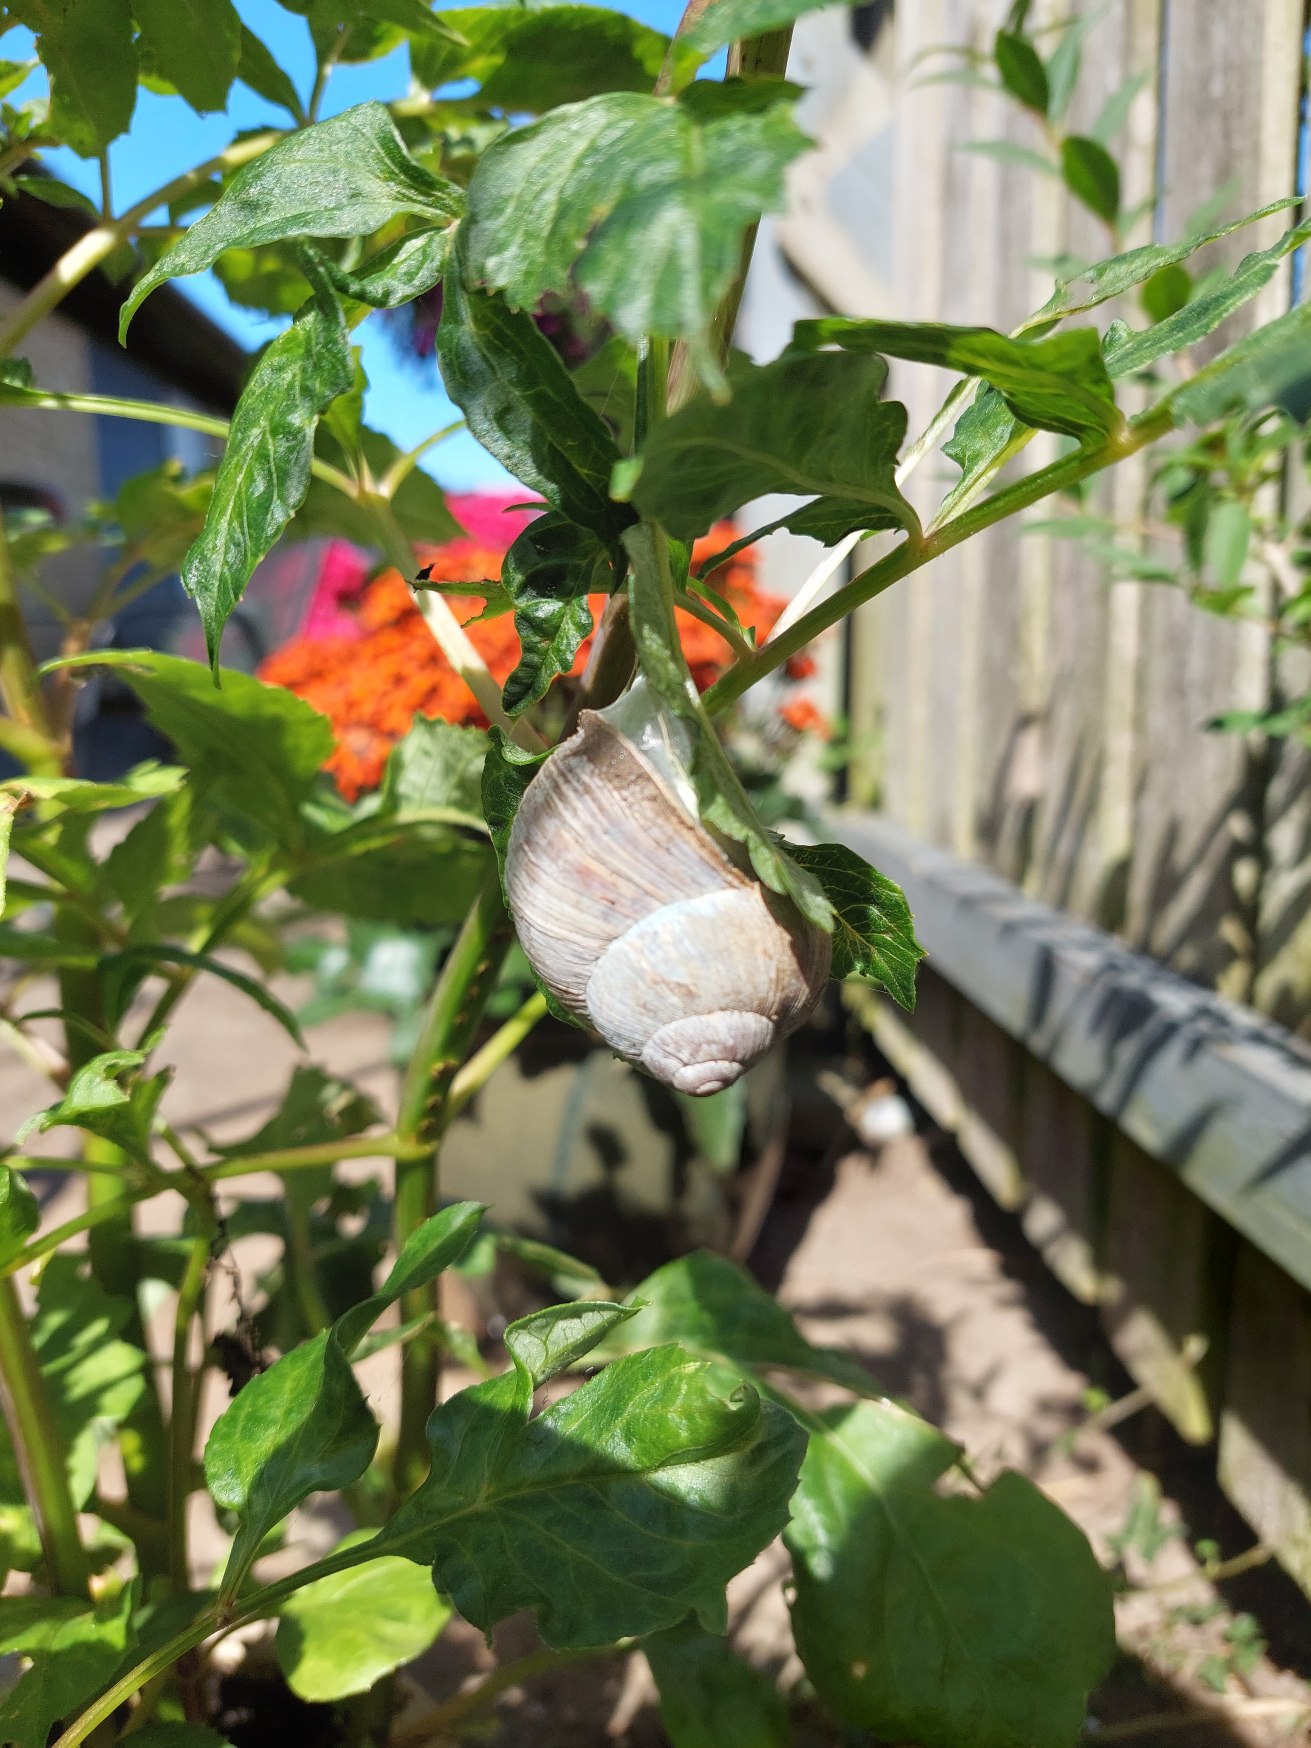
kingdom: Animalia
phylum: Mollusca
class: Gastropoda
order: Stylommatophora
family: Helicidae
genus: Helix
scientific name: Helix pomatia
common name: Vinbjergsnegl
